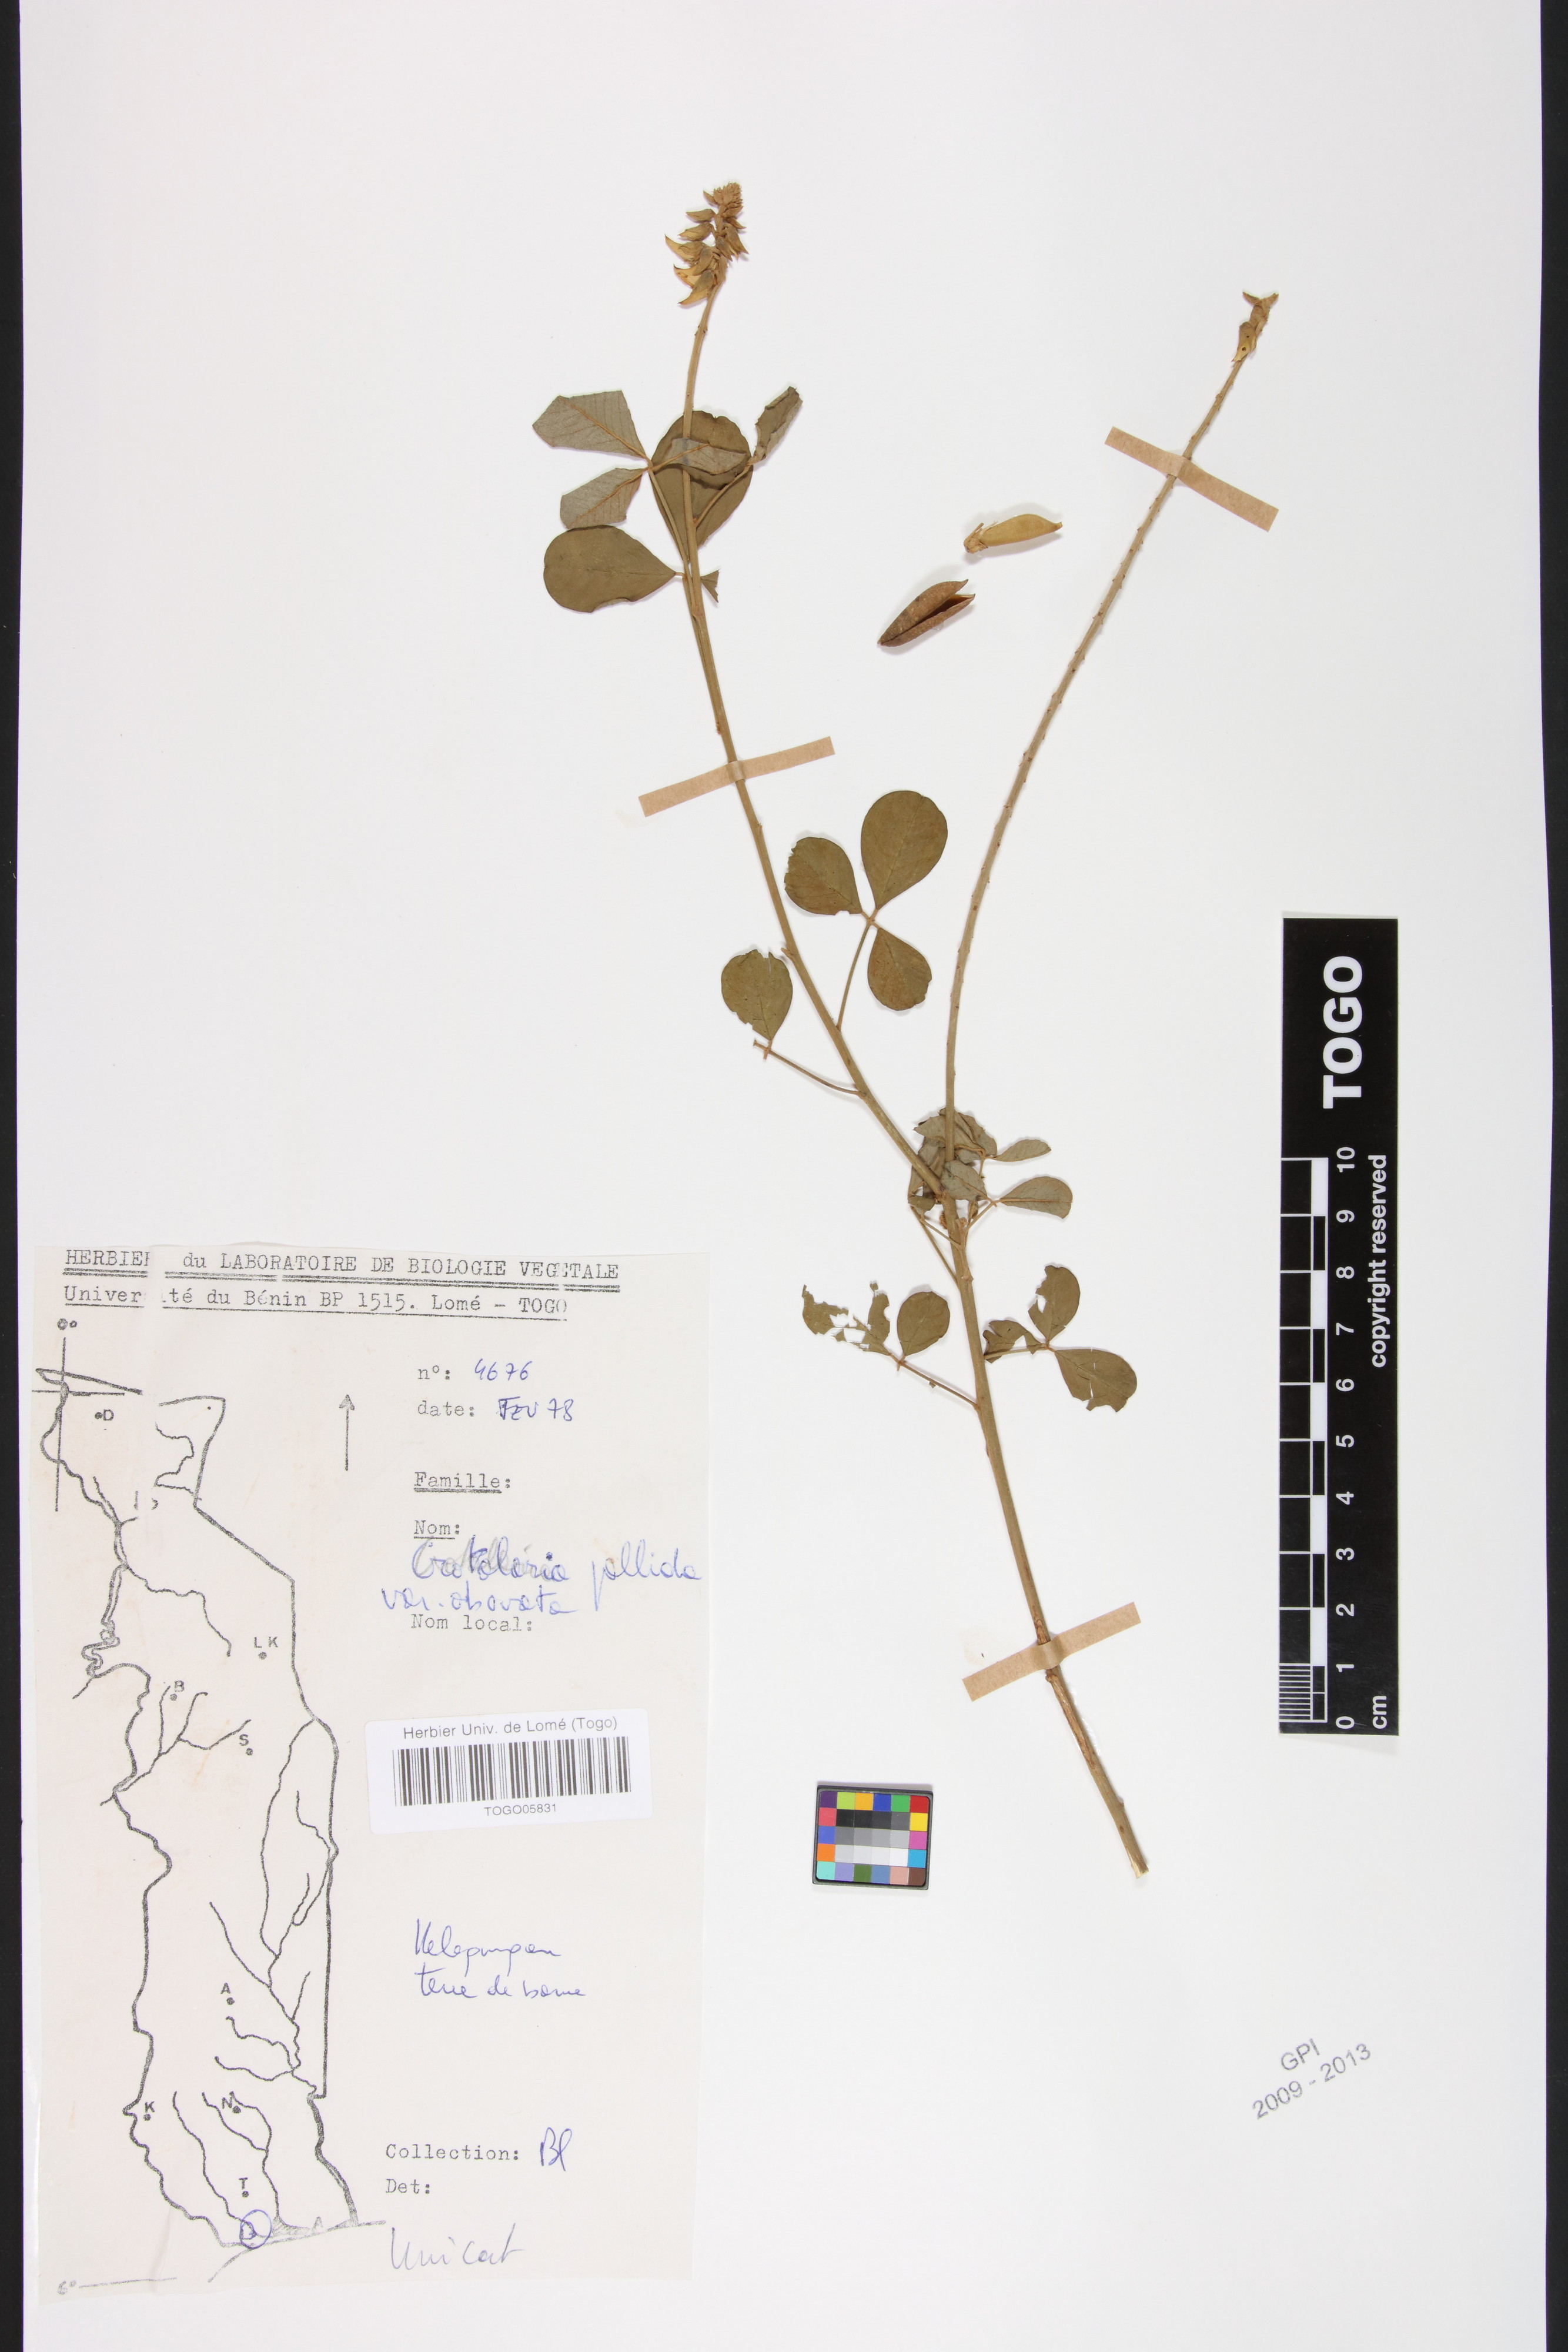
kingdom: Plantae
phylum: Tracheophyta
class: Magnoliopsida
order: Fabales
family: Fabaceae
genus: Crotalaria
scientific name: Crotalaria pallida
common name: Smooth rattlebox
